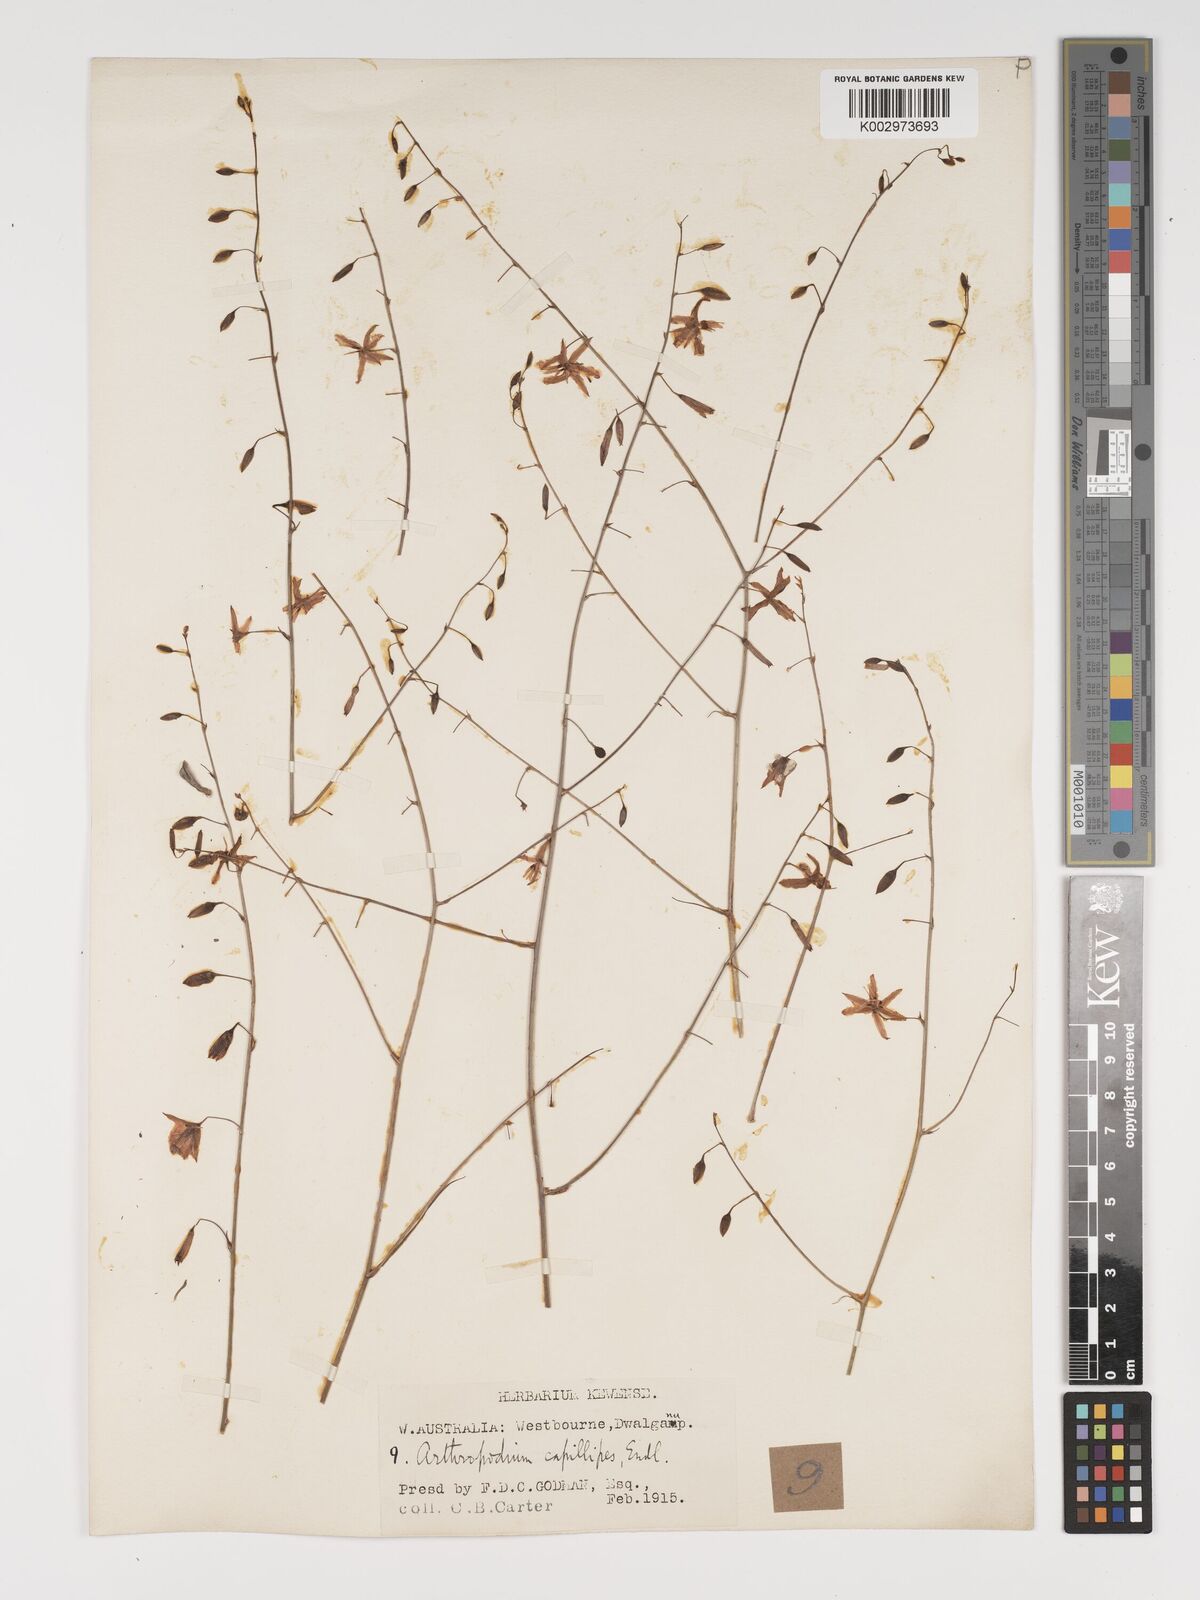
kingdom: Plantae
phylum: Tracheophyta
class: Liliopsida
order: Asparagales
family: Asparagaceae
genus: Dichopogon
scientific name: Dichopogon preissii
